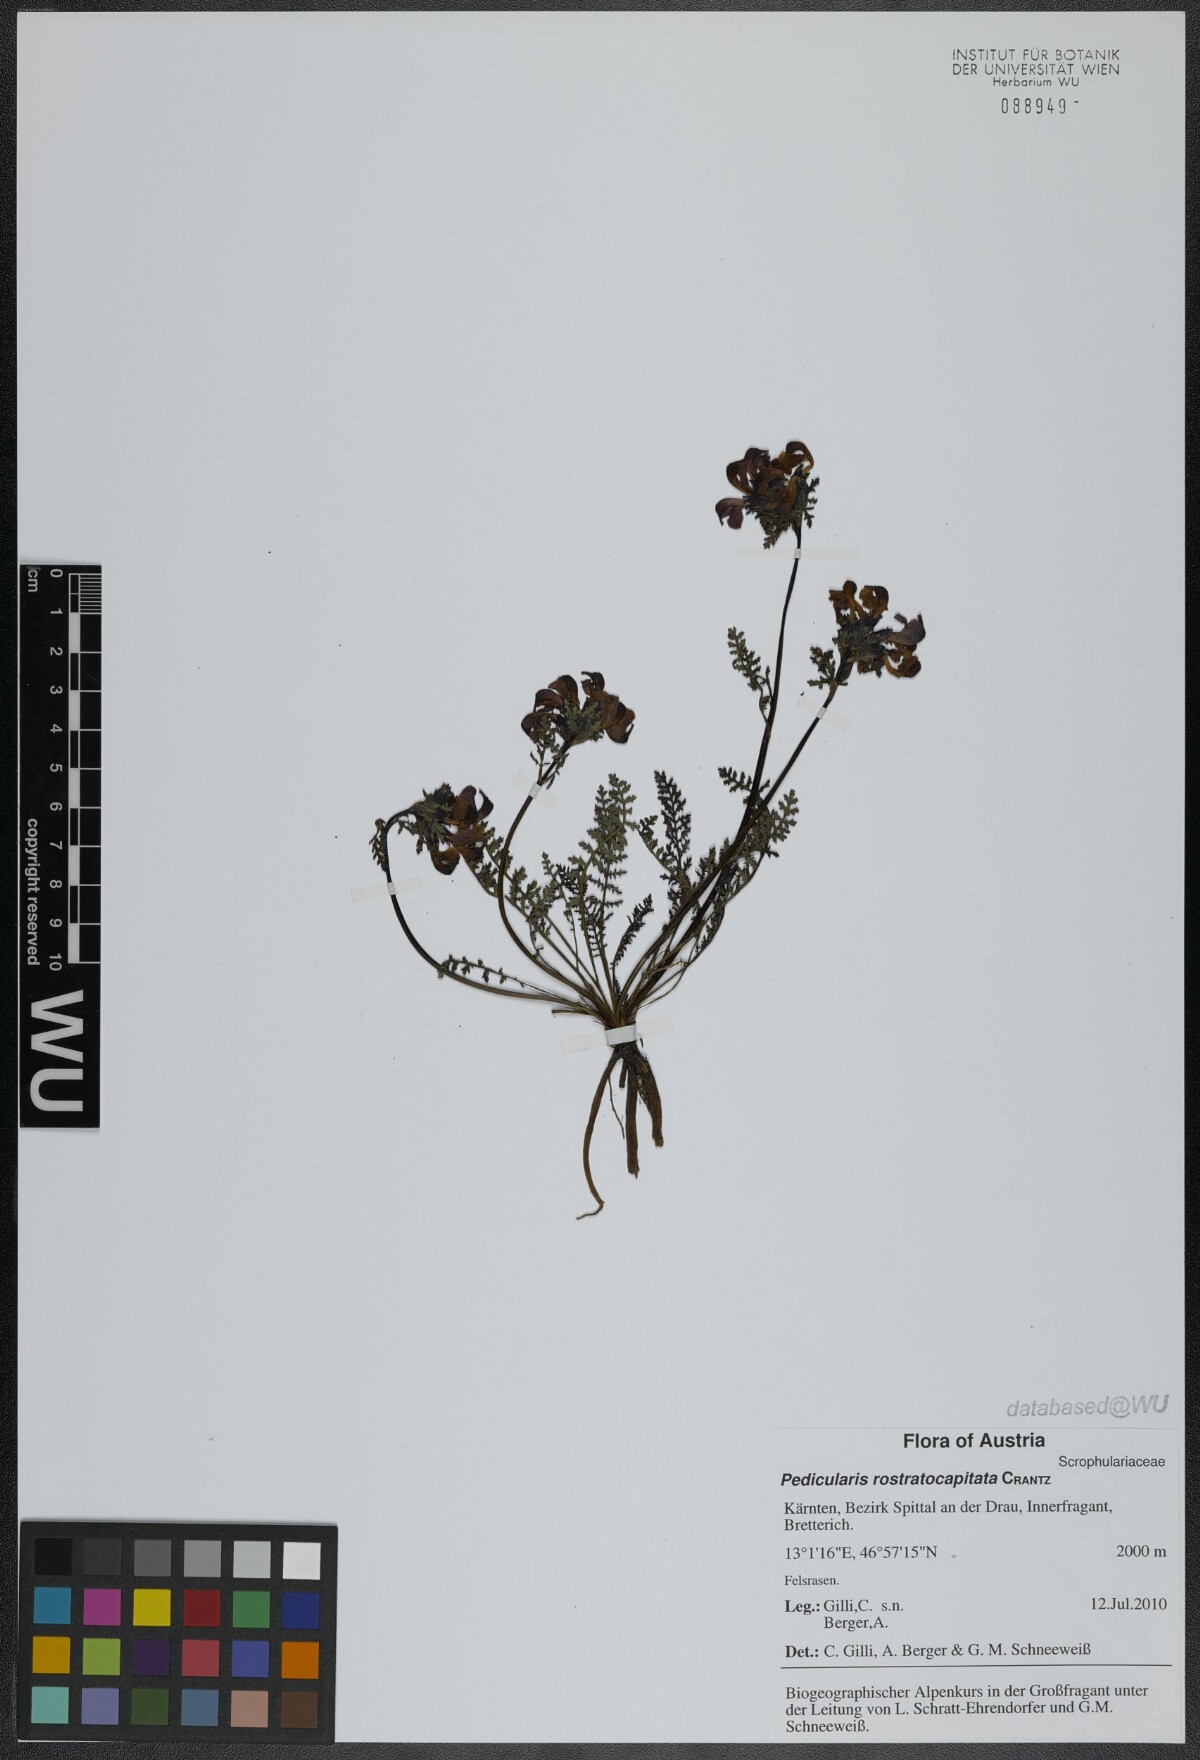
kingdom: Plantae
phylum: Tracheophyta
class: Magnoliopsida
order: Lamiales
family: Orobanchaceae
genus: Pedicularis
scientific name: Pedicularis rostratocapitata
